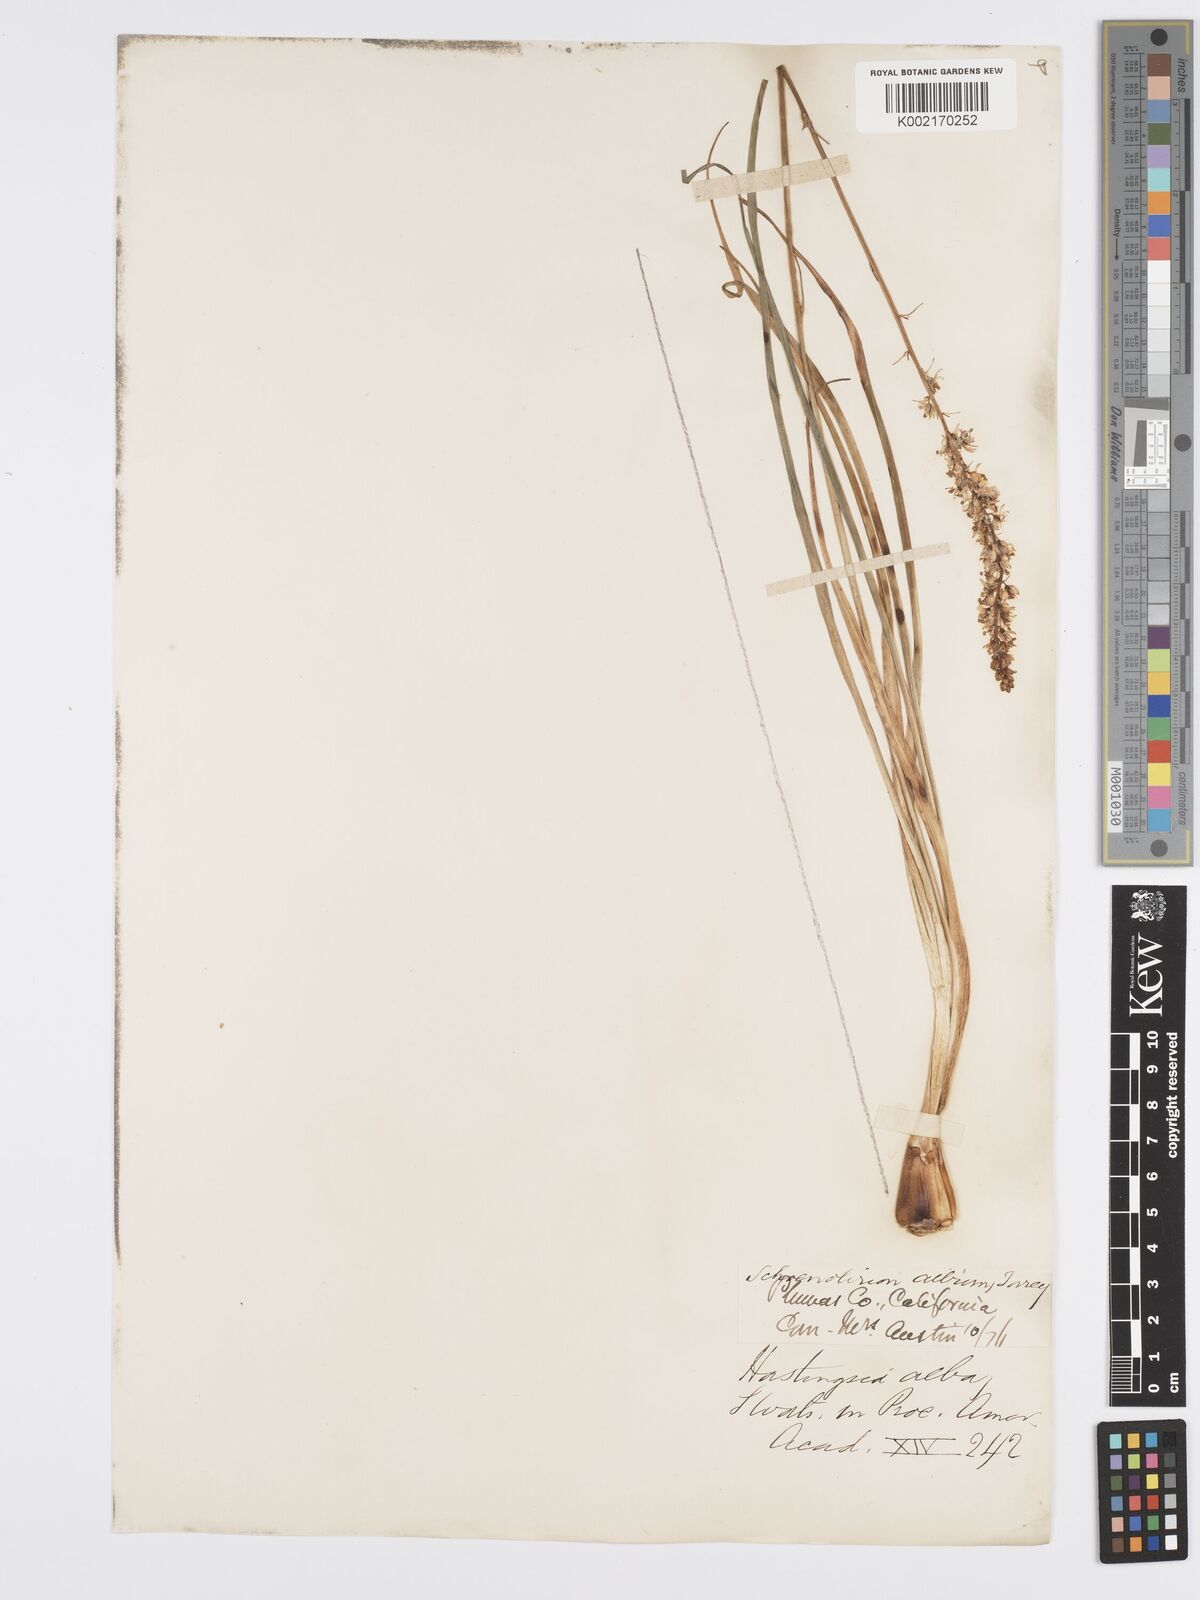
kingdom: Plantae
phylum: Tracheophyta
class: Liliopsida
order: Asparagales
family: Asparagaceae
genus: Hastingsia
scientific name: Hastingsia alba
